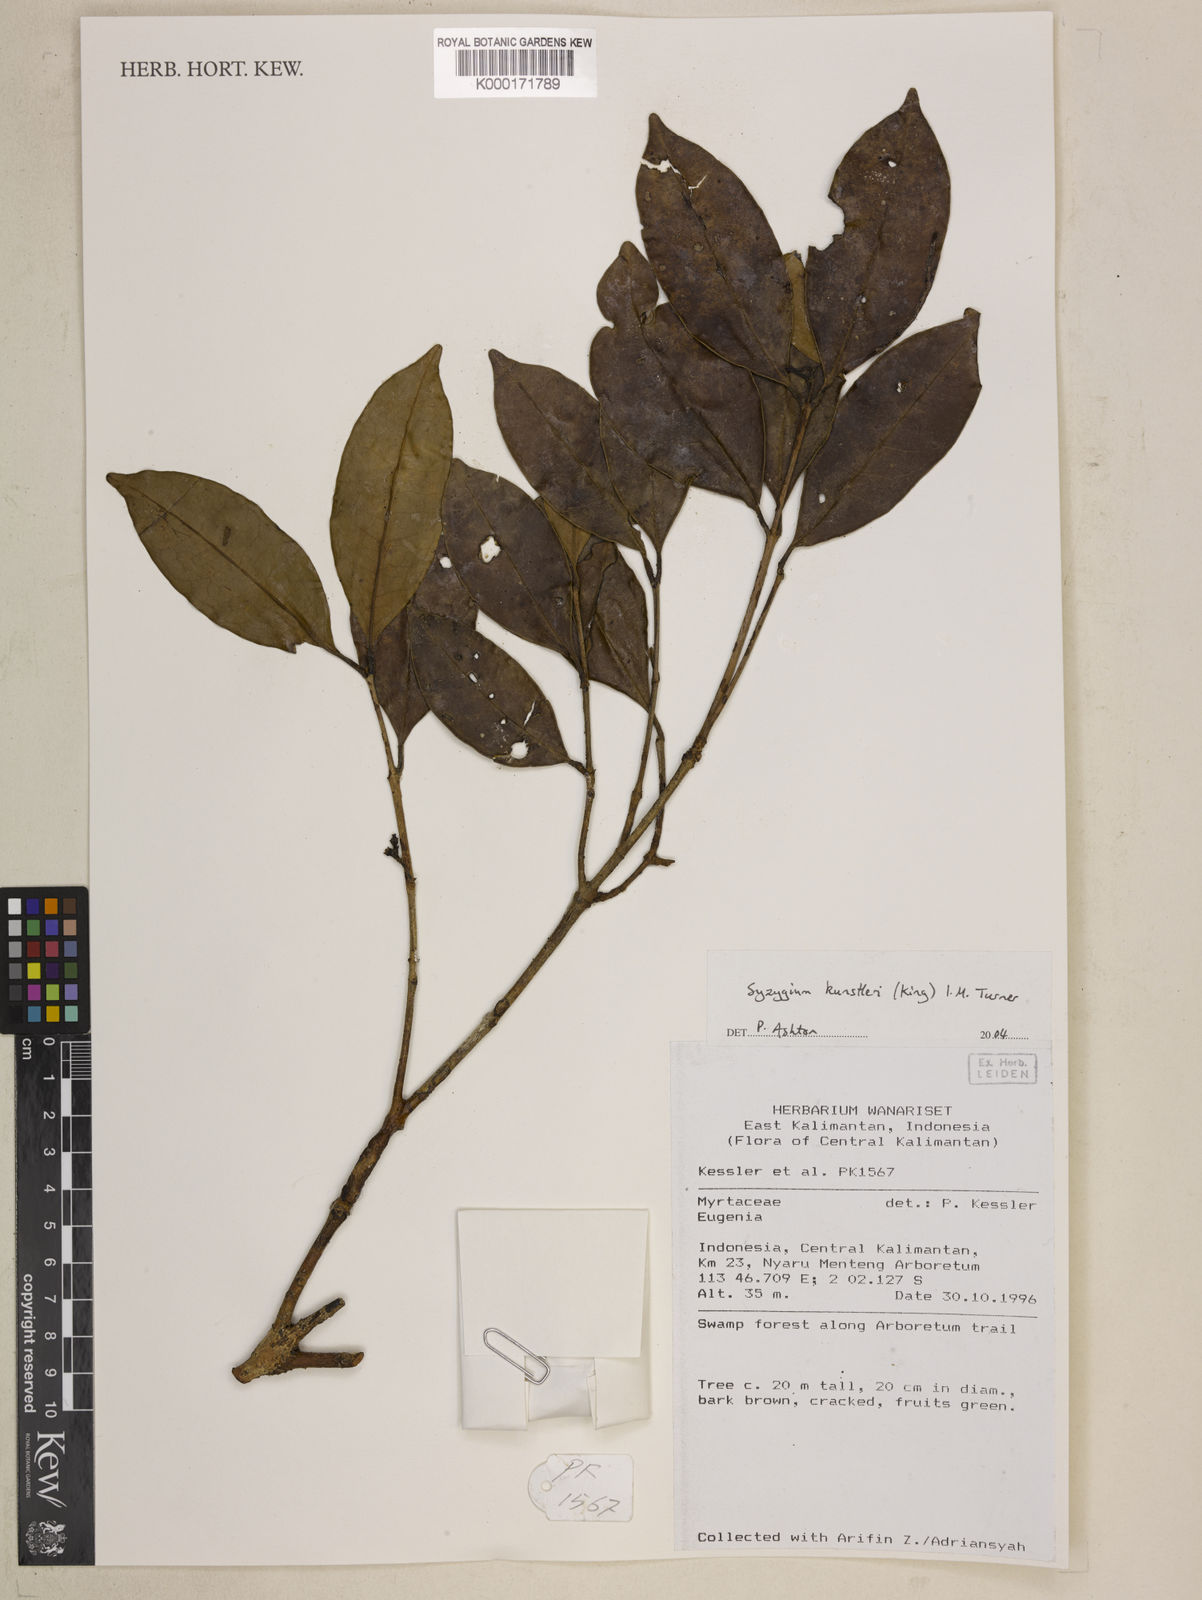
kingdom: Plantae
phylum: Tracheophyta
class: Magnoliopsida
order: Myrtales
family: Myrtaceae
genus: Syzygium
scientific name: Syzygium
